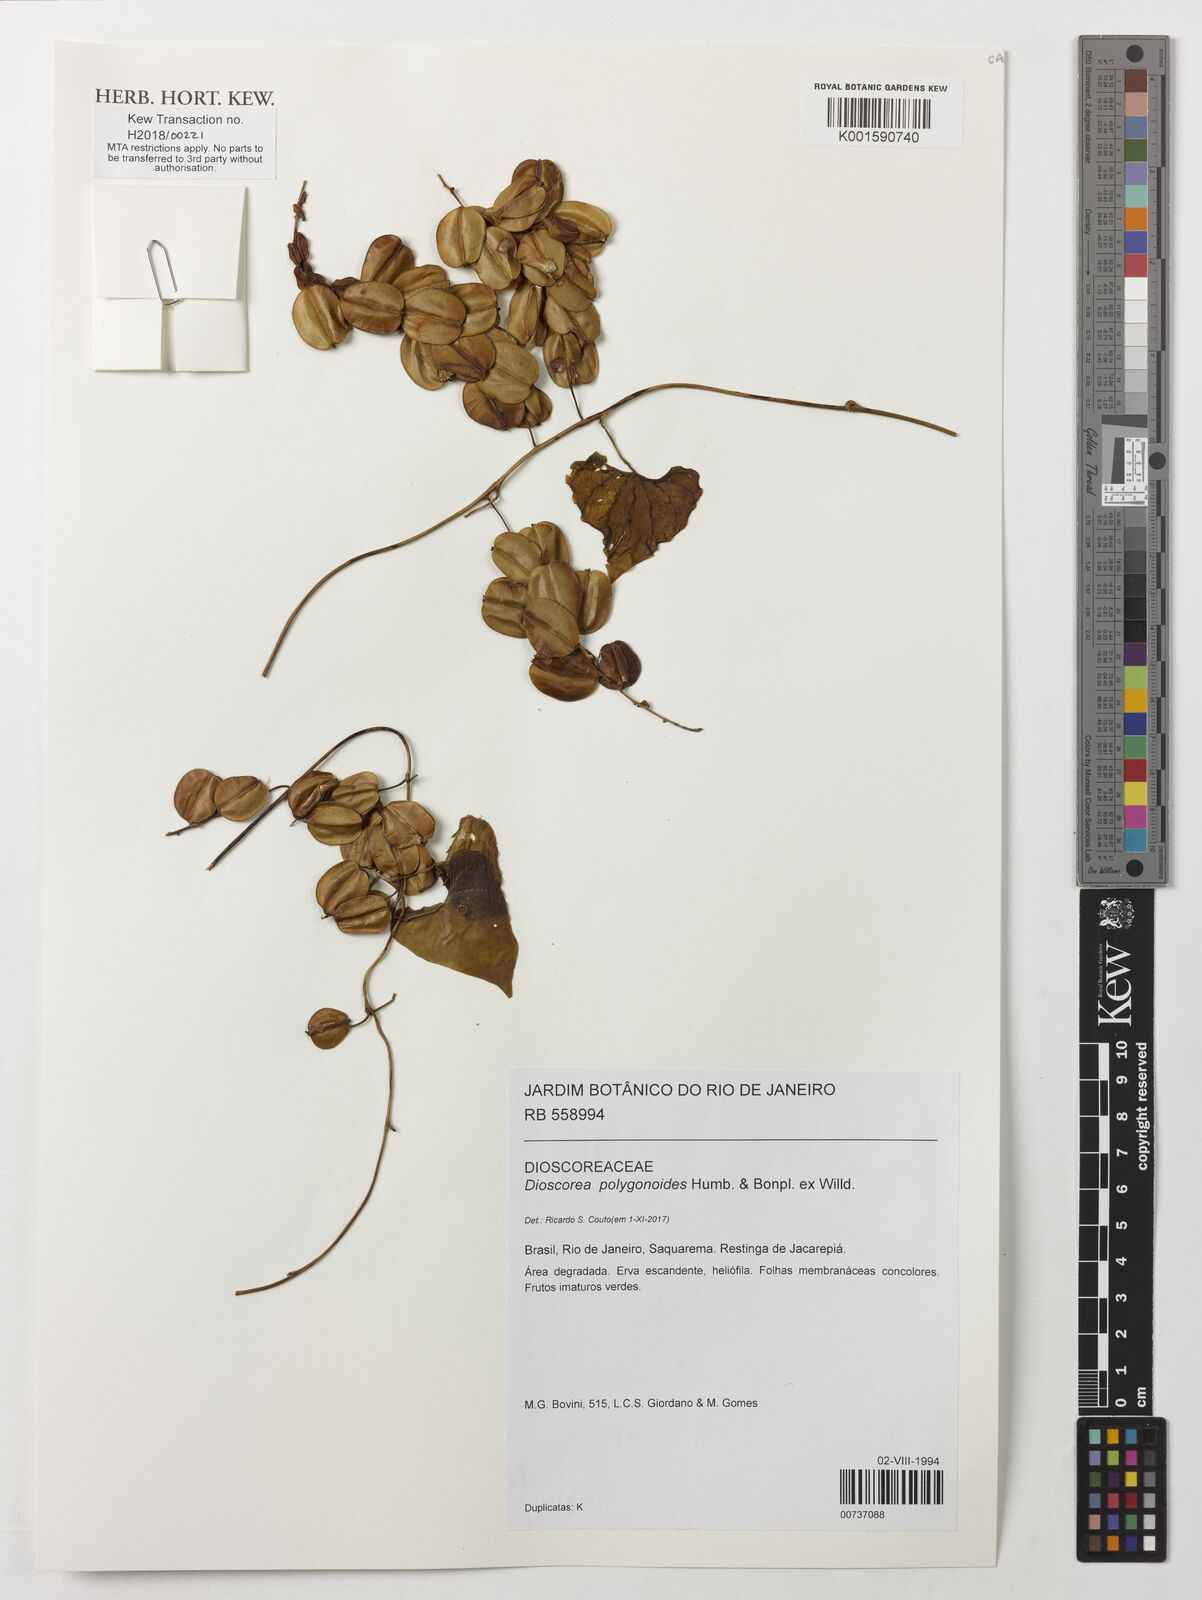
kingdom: Plantae
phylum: Tracheophyta
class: Liliopsida
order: Dioscoreales
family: Dioscoreaceae
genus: Dioscorea
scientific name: Dioscorea polygonoides
